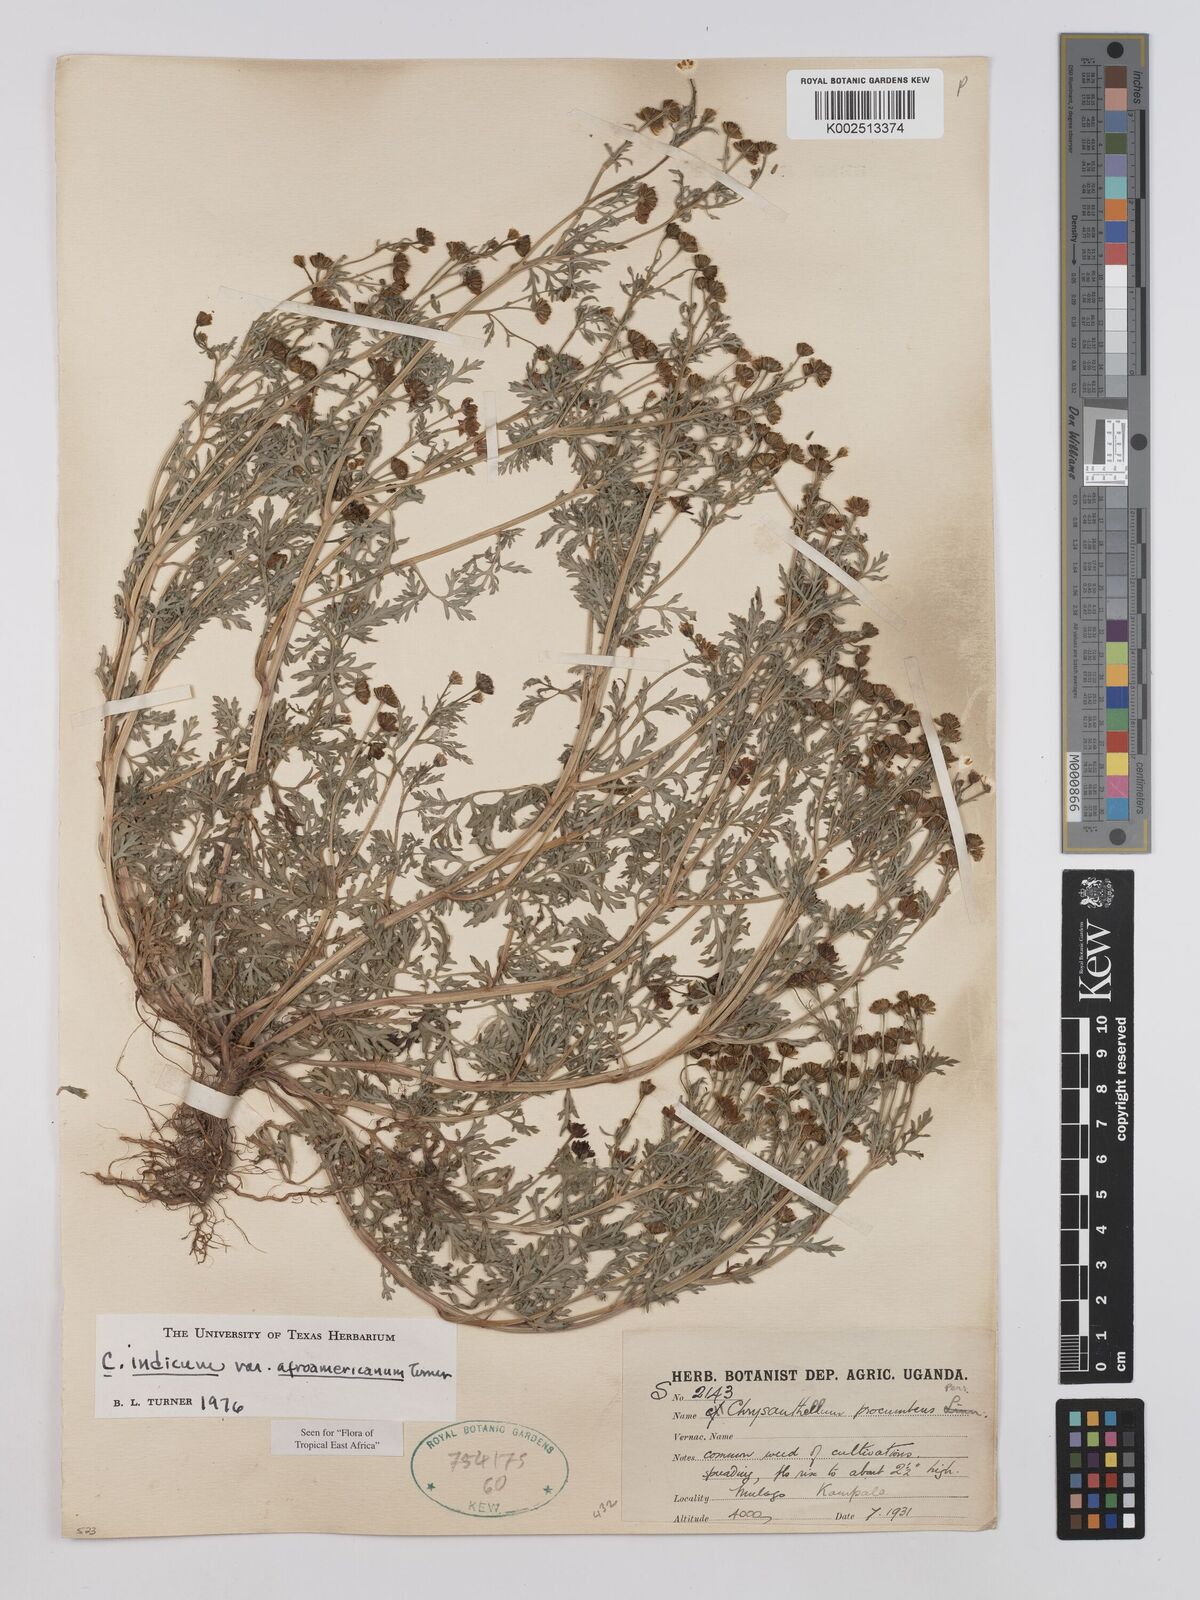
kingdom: Plantae
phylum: Tracheophyta
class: Magnoliopsida
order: Asterales
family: Asteraceae
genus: Chrysanthellum
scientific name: Chrysanthellum indicum
